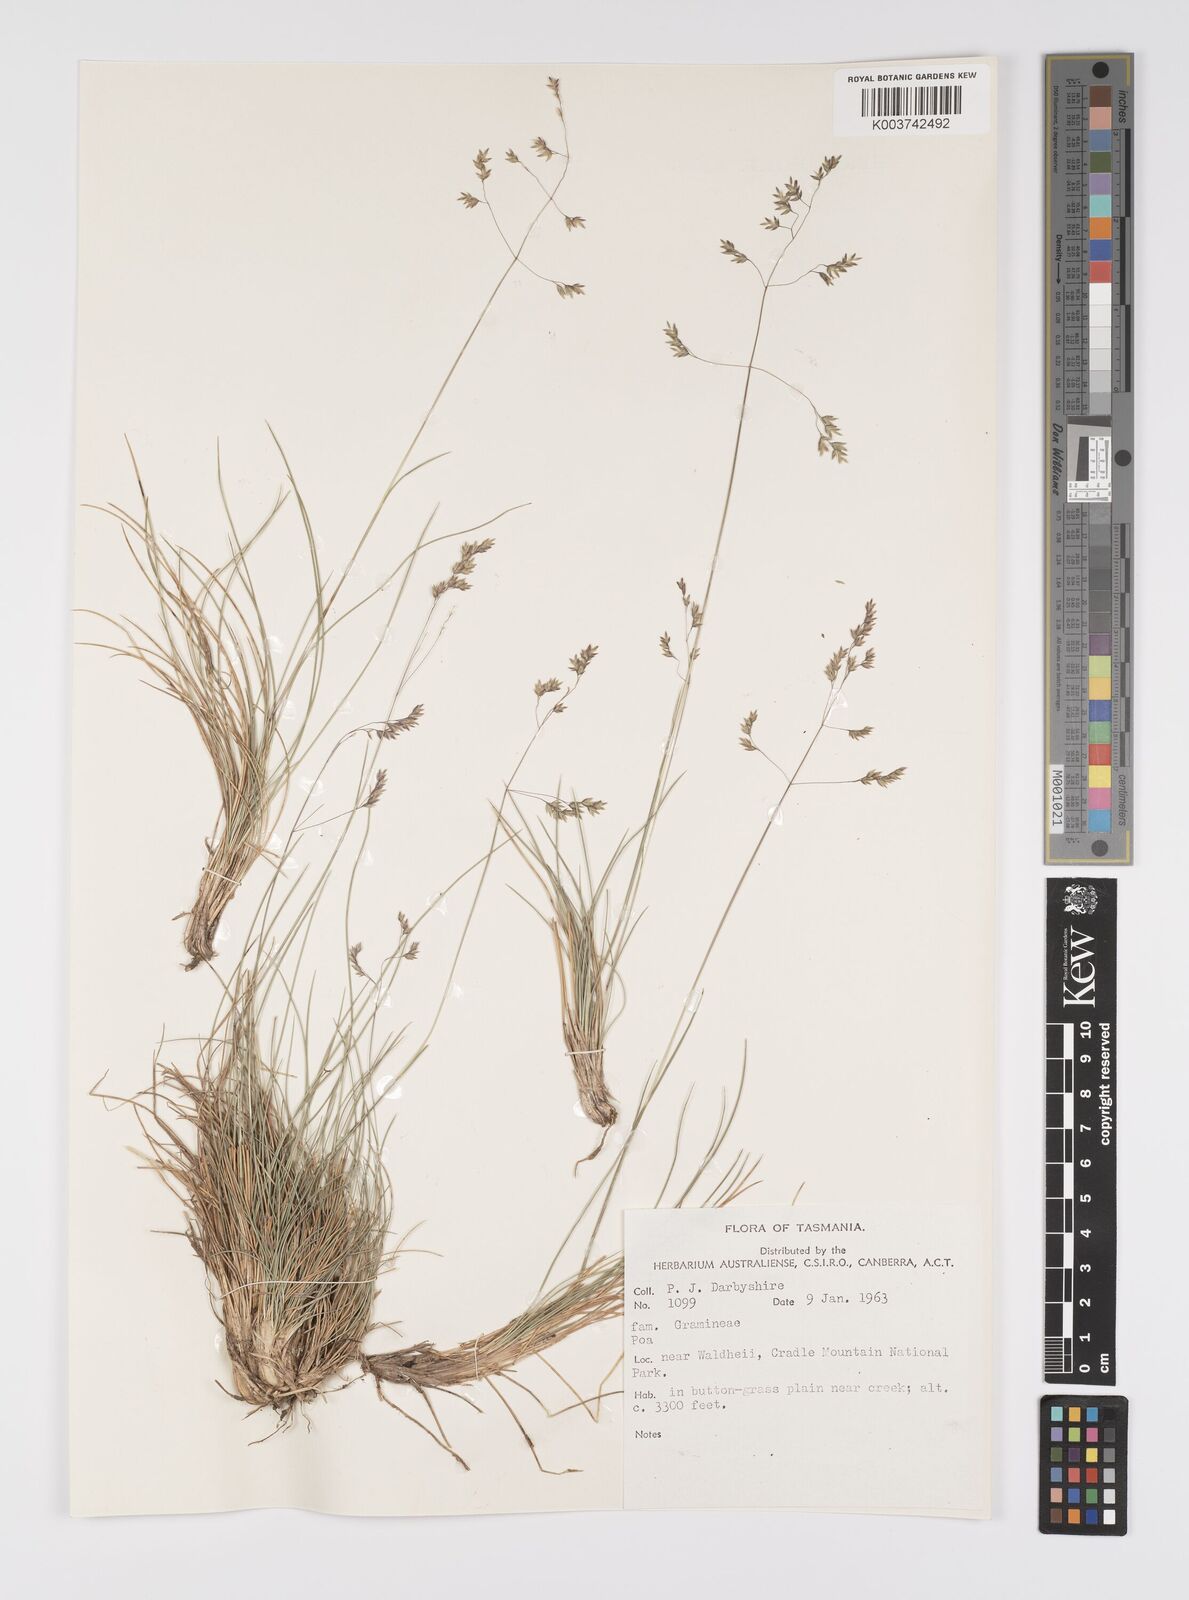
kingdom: Plantae
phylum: Tracheophyta
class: Liliopsida
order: Poales
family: Poaceae
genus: Poa
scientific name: Poa
